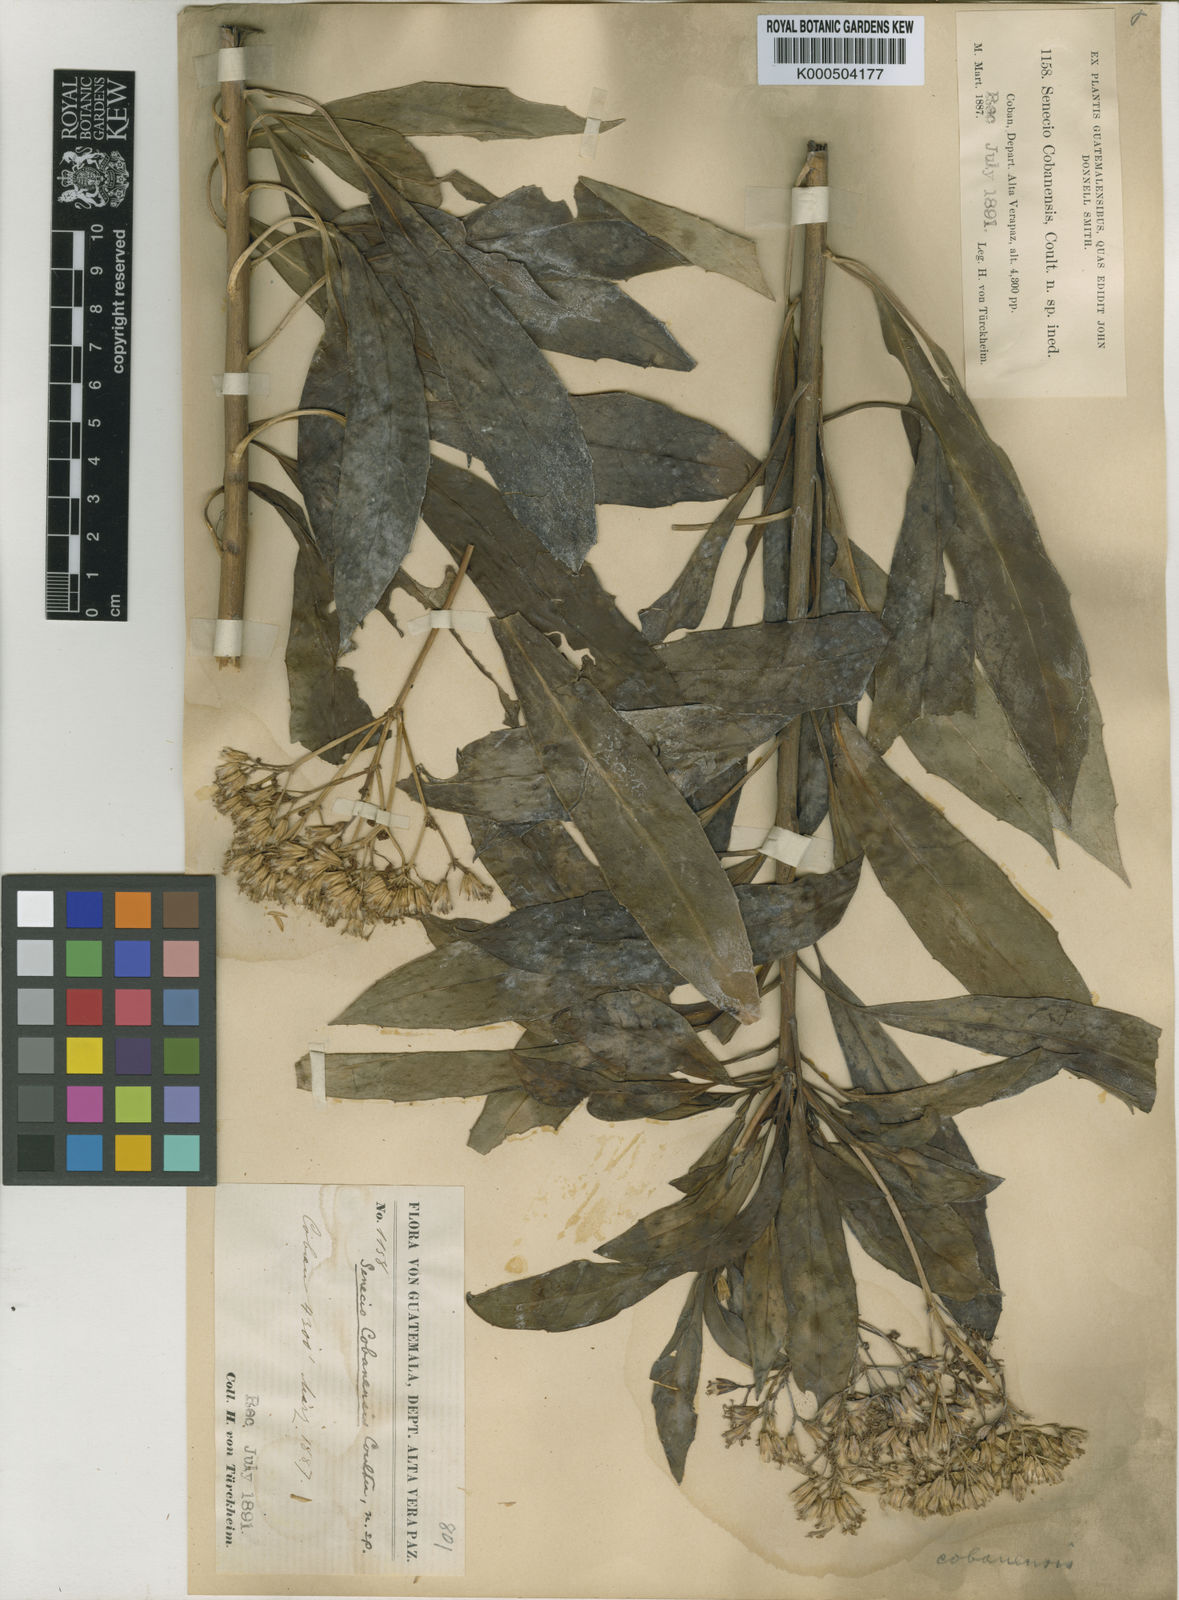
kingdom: Plantae
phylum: Tracheophyta
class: Magnoliopsida
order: Asterales
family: Asteraceae
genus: Telanthophora
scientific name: Telanthophora cobanensis
